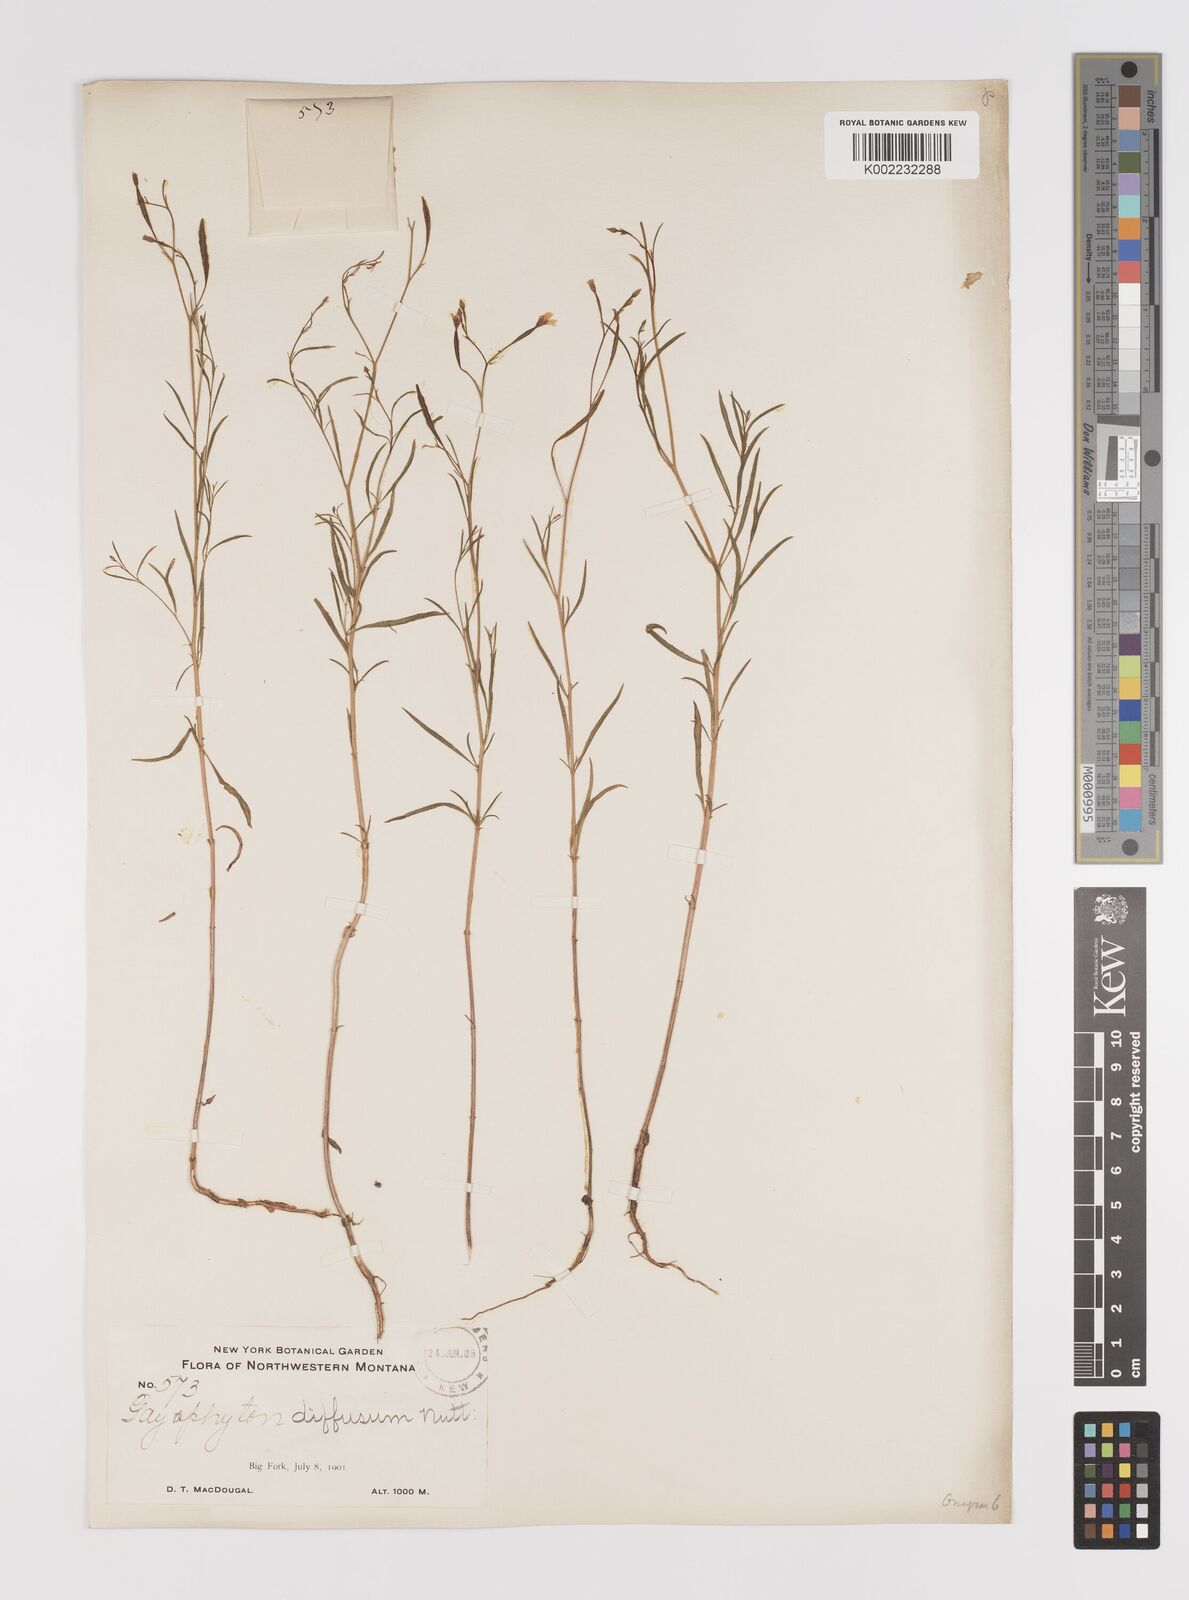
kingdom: Plantae
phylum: Tracheophyta
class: Magnoliopsida
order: Myrtales
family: Onagraceae
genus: Epilobium
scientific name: Epilobium
